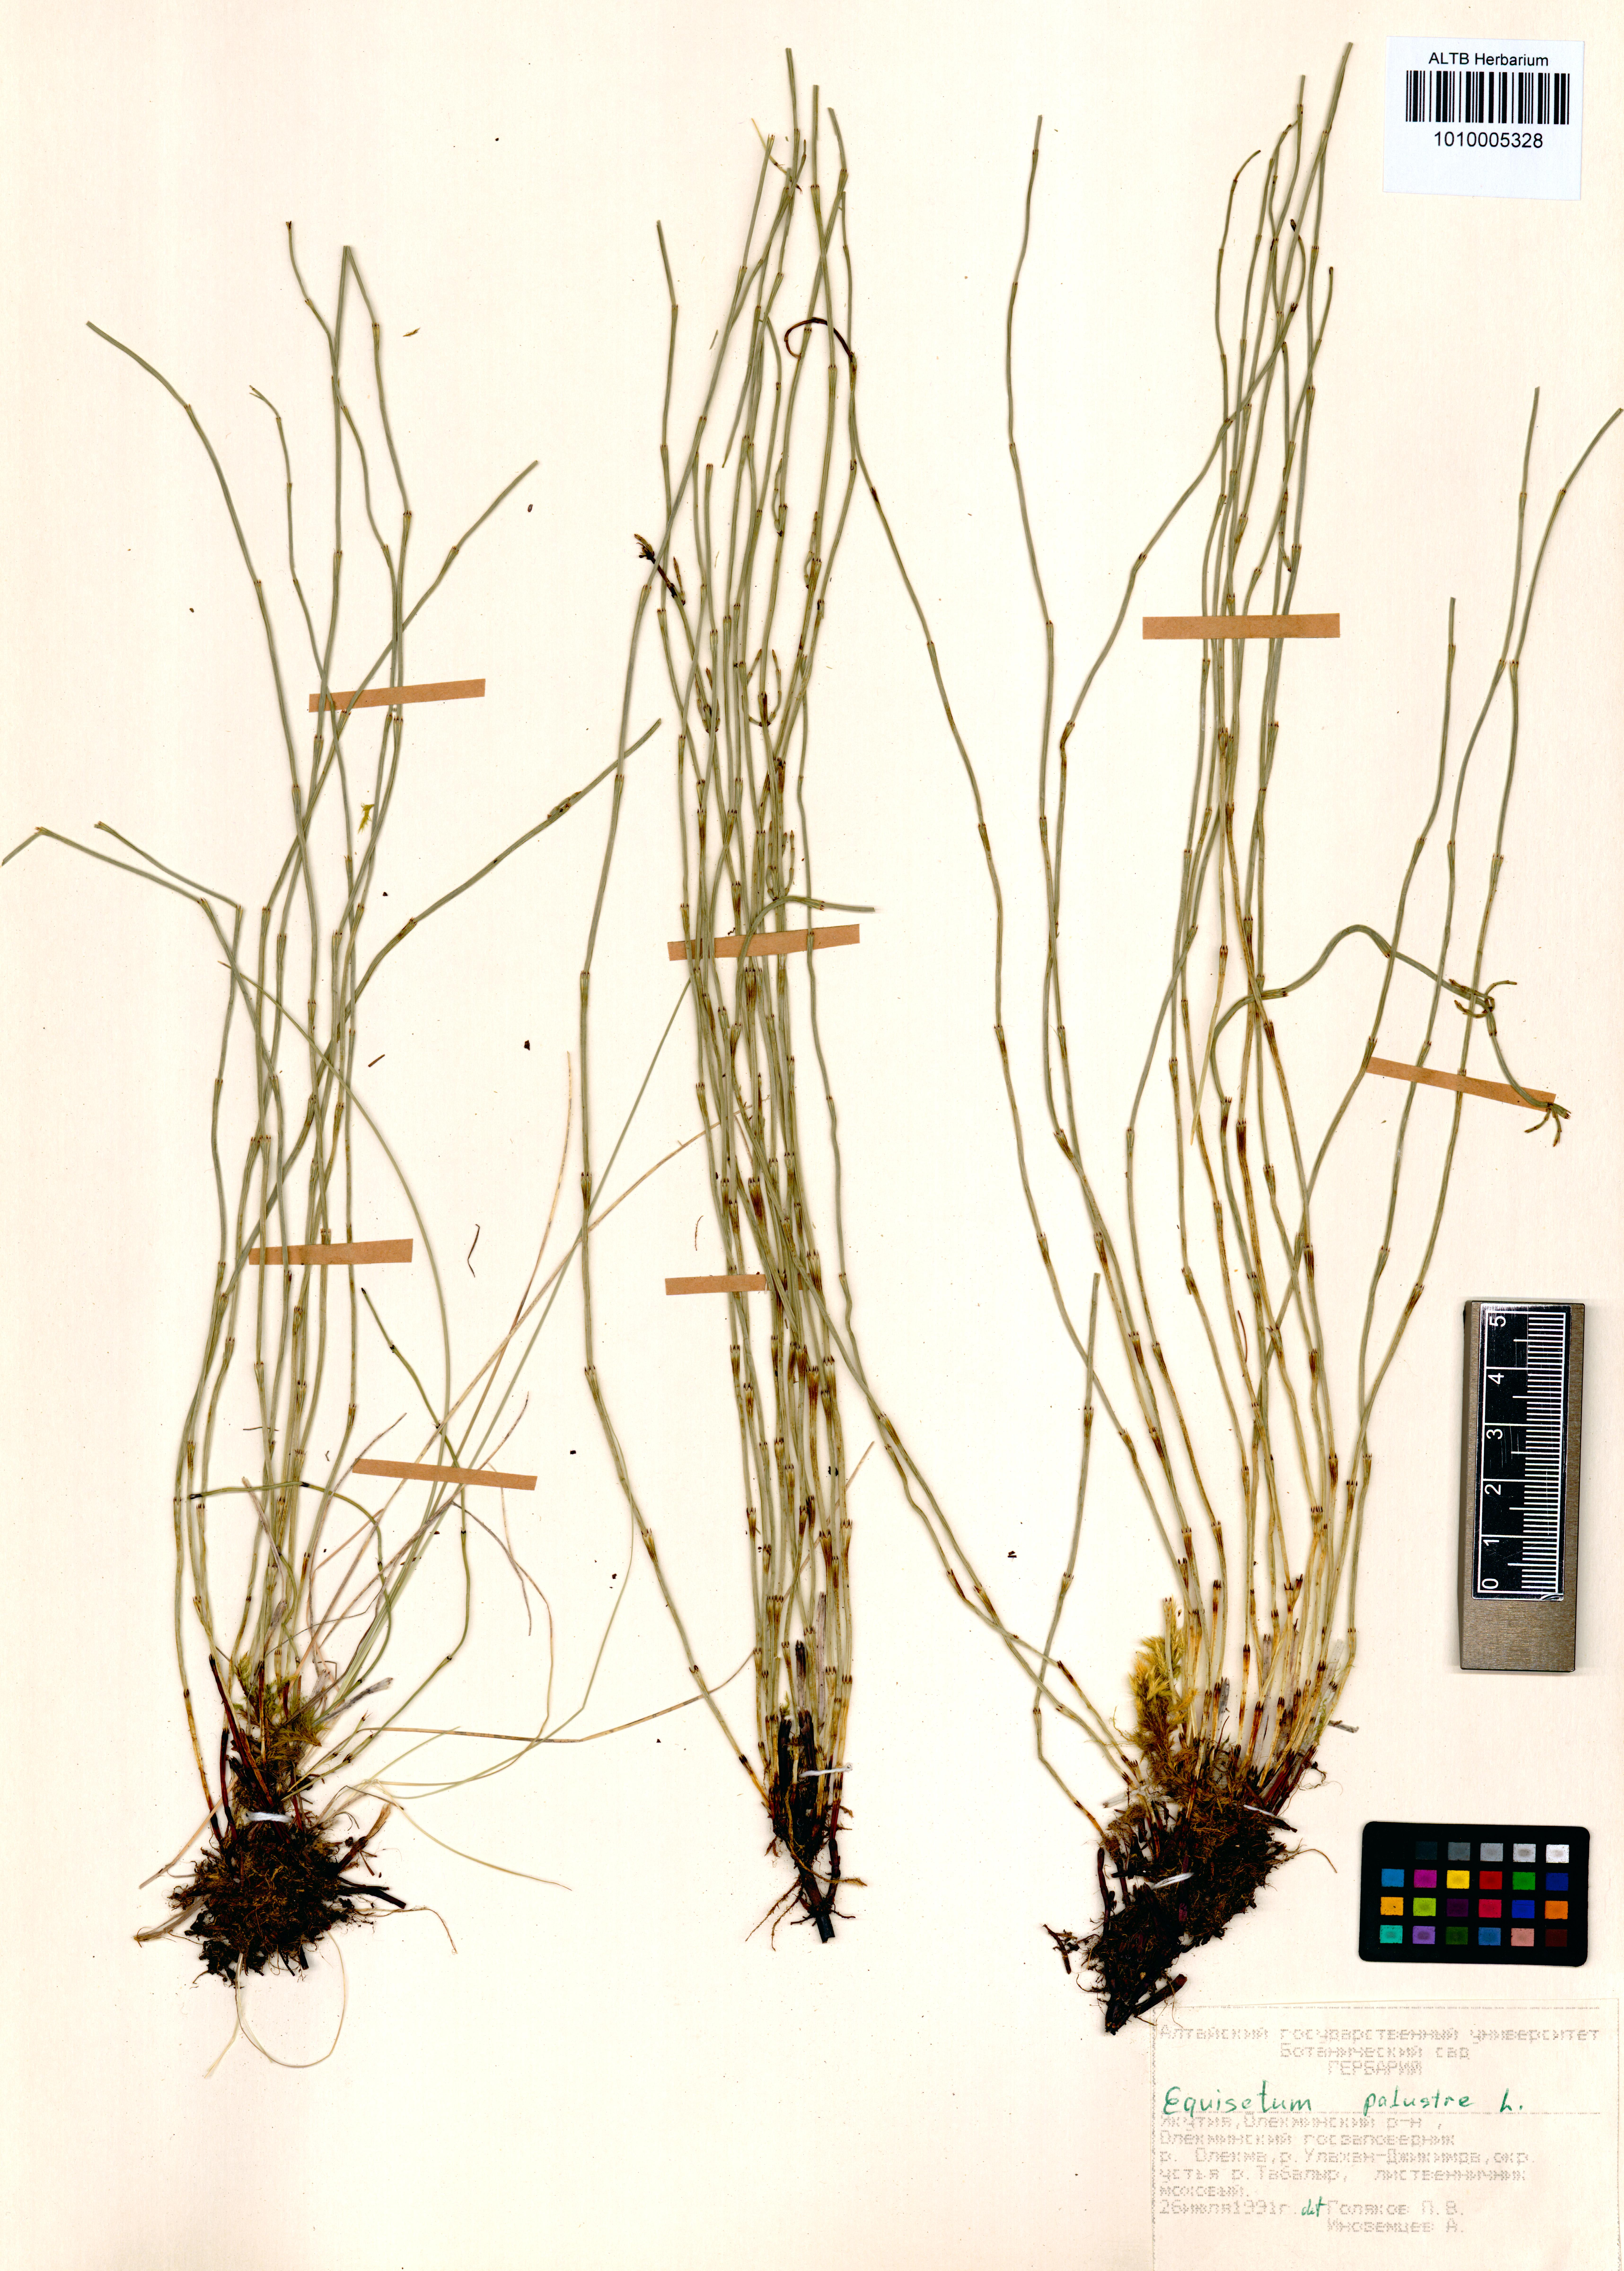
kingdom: Plantae
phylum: Tracheophyta
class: Polypodiopsida
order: Equisetales
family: Equisetaceae
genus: Equisetum
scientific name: Equisetum palustre
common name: Marsh horsetail
